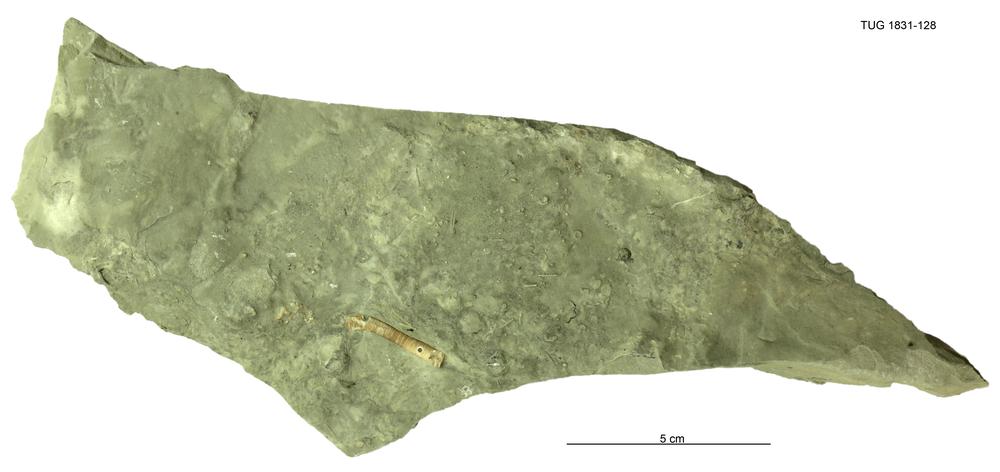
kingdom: Animalia
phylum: Echinodermata
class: Crinoidea
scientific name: Crinoidea
